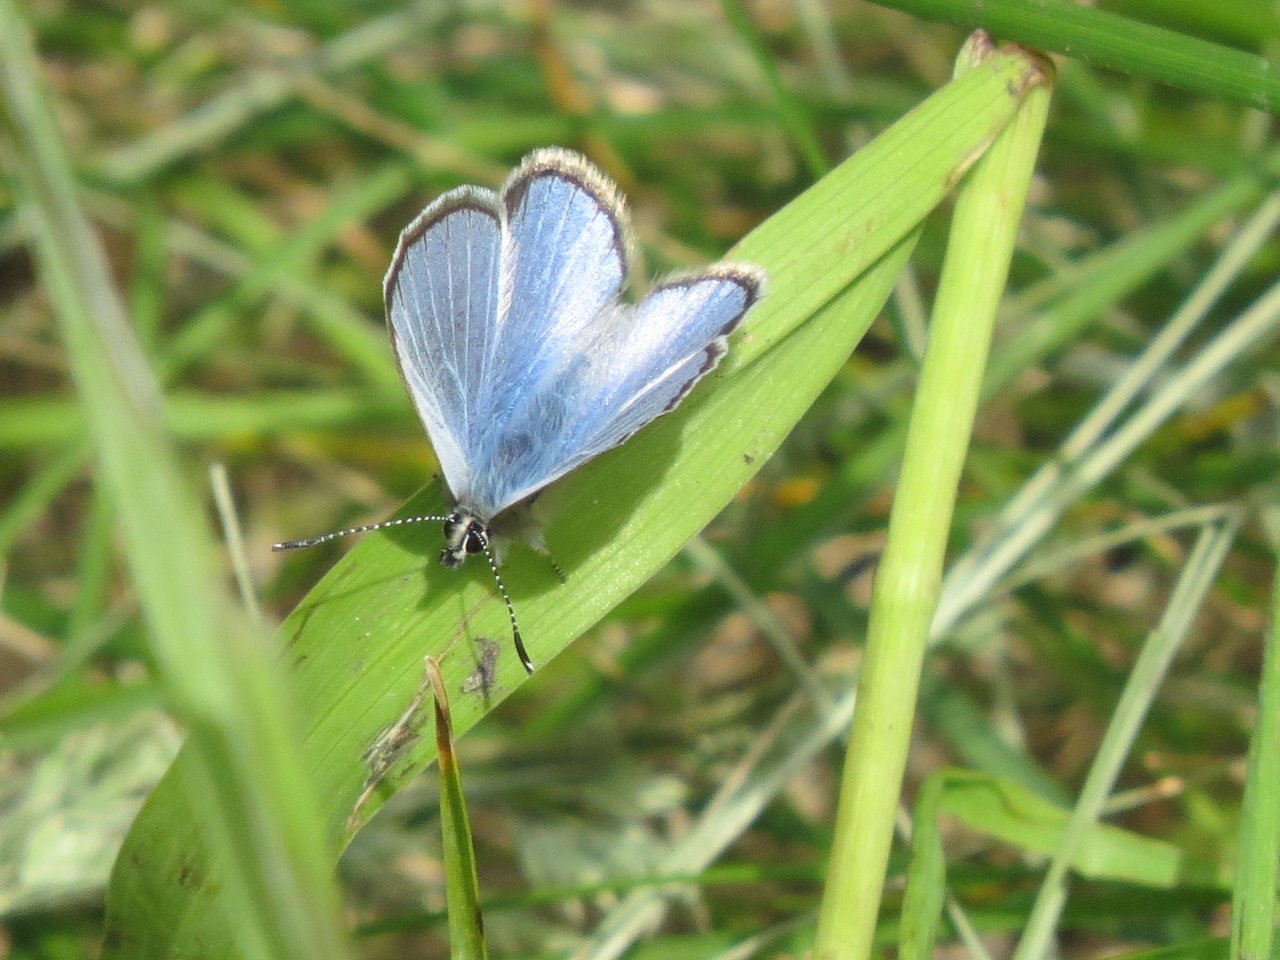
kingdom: Animalia
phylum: Arthropoda
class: Insecta
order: Lepidoptera
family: Lycaenidae
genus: Glaucopsyche
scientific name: Glaucopsyche lygdamus
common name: Silvery Blue
